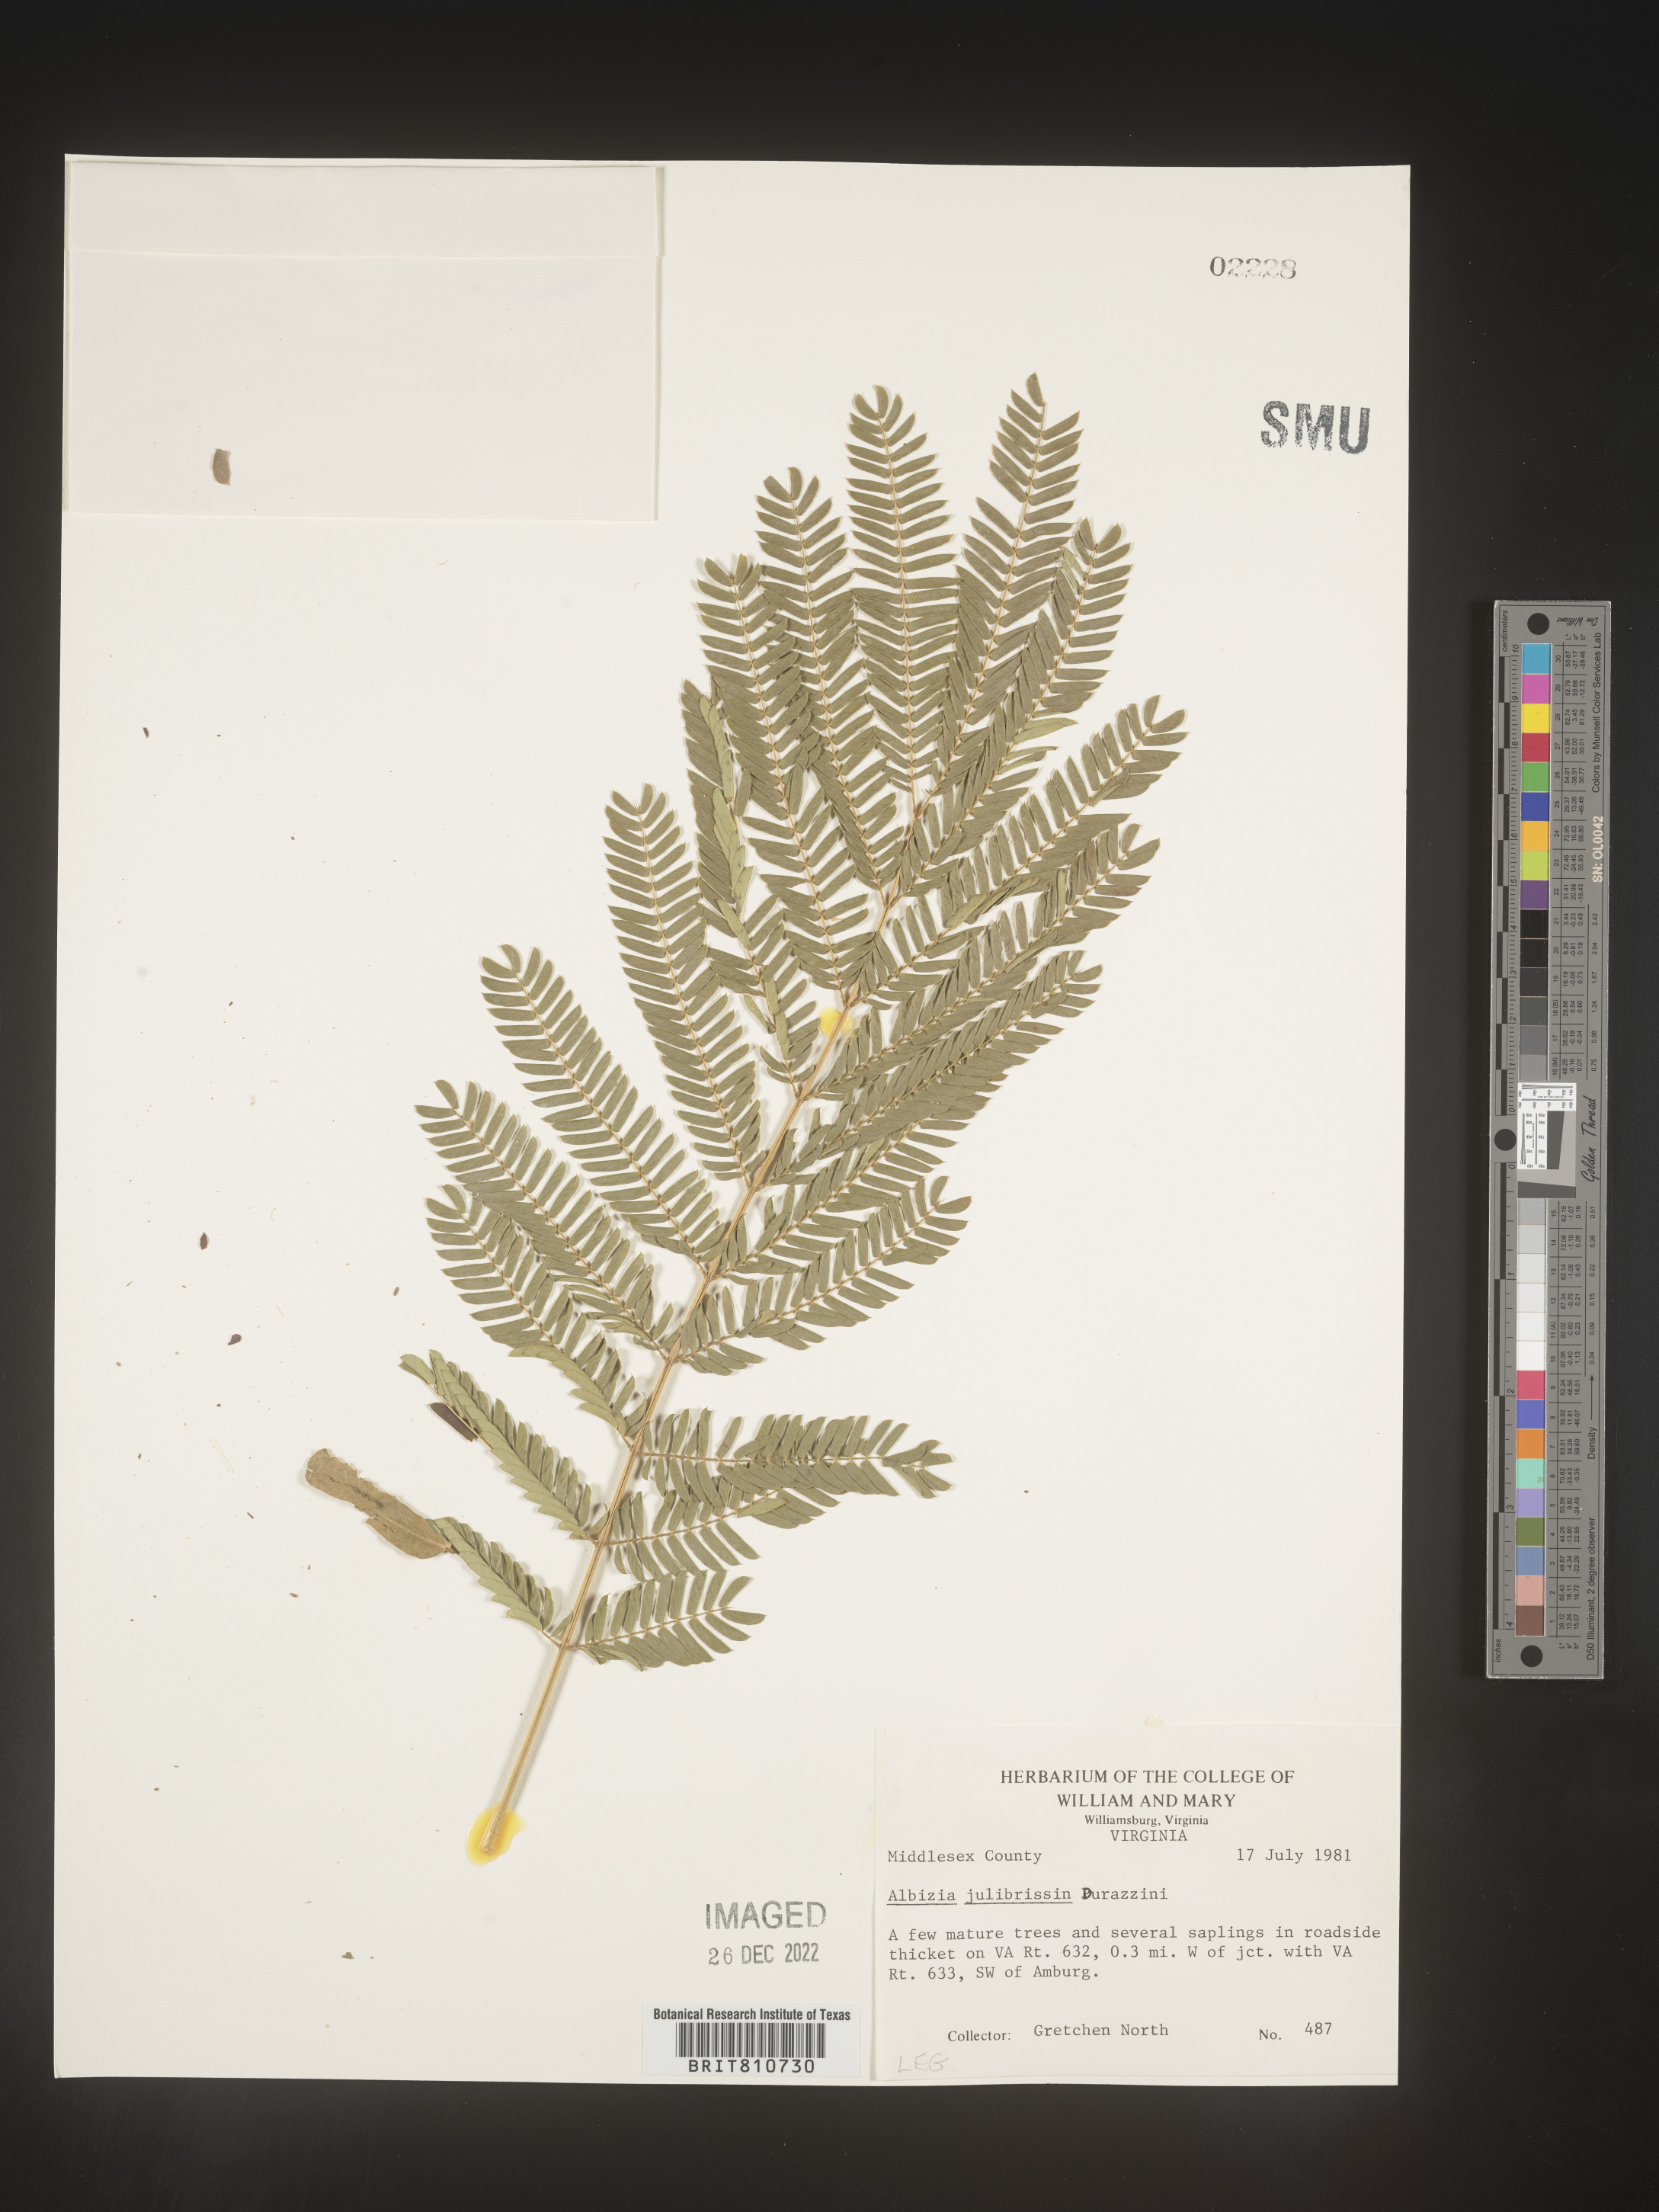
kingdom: Plantae
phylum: Tracheophyta
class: Magnoliopsida
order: Fabales
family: Fabaceae
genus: Albizia
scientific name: Albizia
